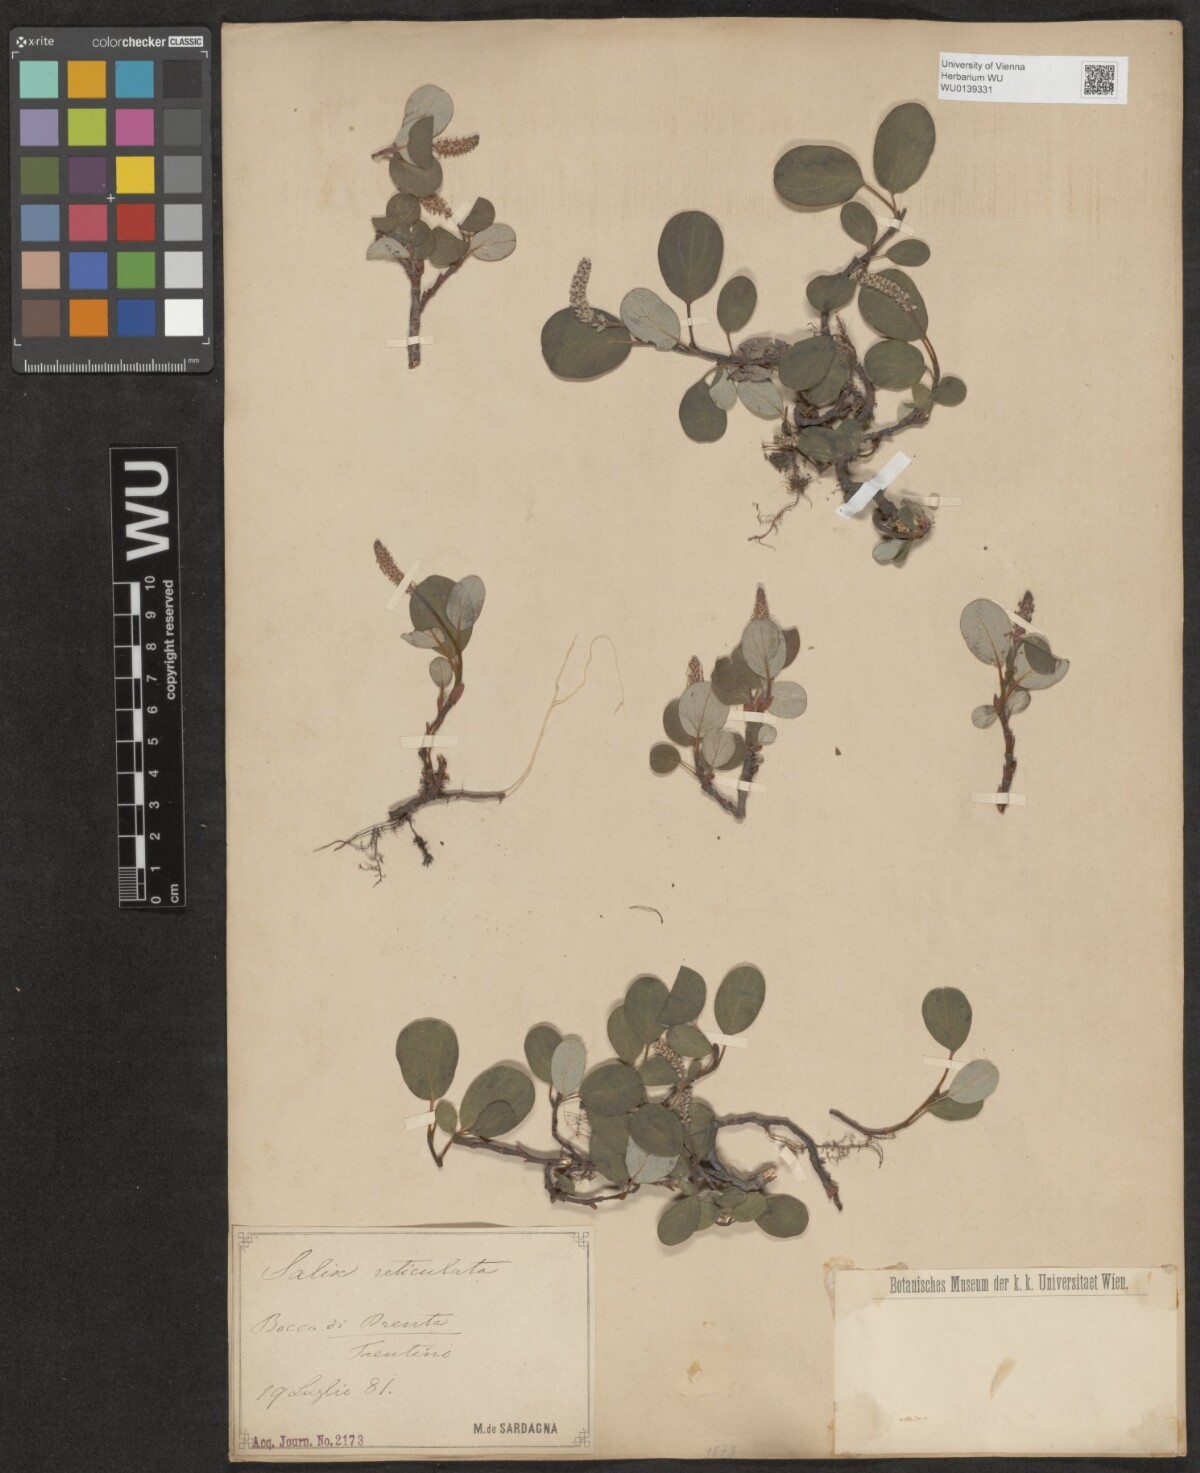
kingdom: Plantae
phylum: Tracheophyta
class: Magnoliopsida
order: Malpighiales
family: Salicaceae
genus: Salix
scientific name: Salix reticulata
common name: Net-leaved willow
